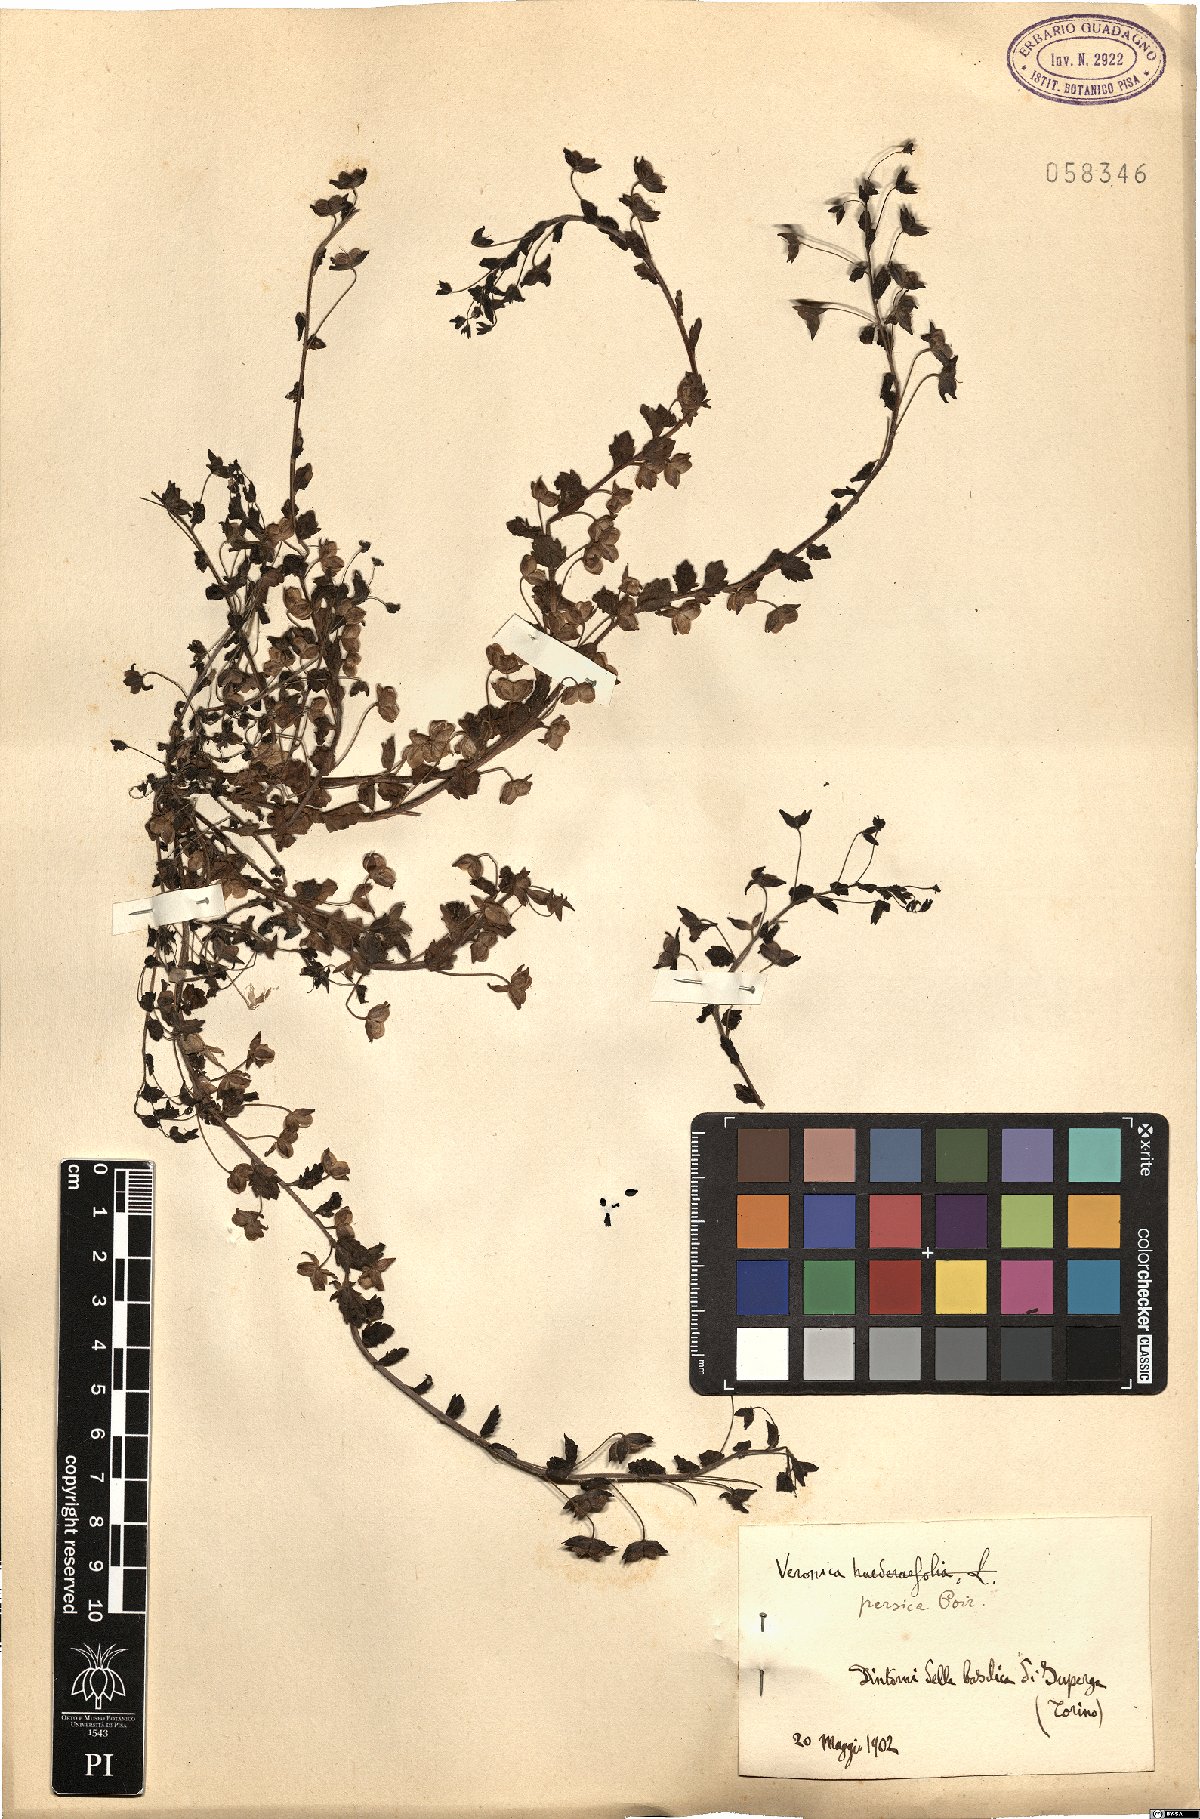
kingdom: Plantae
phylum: Tracheophyta
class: Magnoliopsida
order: Lamiales
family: Plantaginaceae
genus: Veronica
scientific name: Veronica persica
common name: Common field-speedwell
